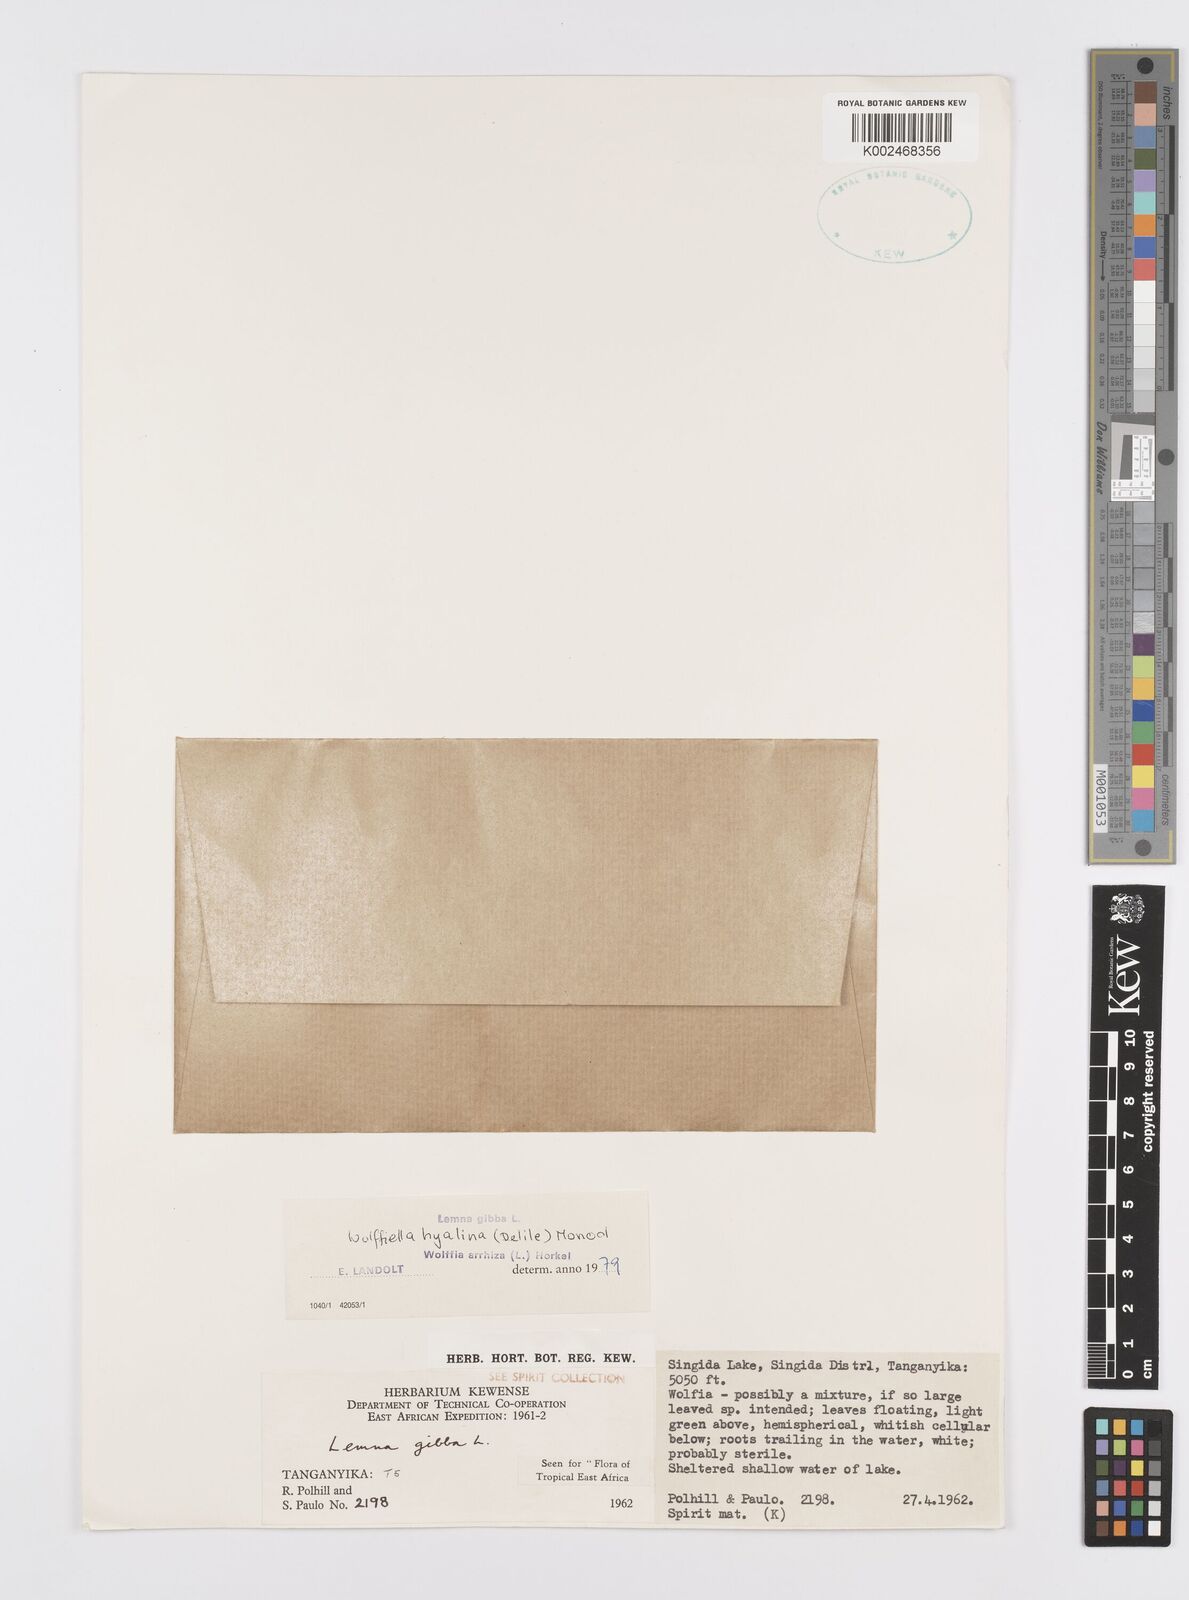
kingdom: Plantae
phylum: Tracheophyta
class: Liliopsida
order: Alismatales
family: Araceae
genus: Wolffiella
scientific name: Wolffiella hyalina
